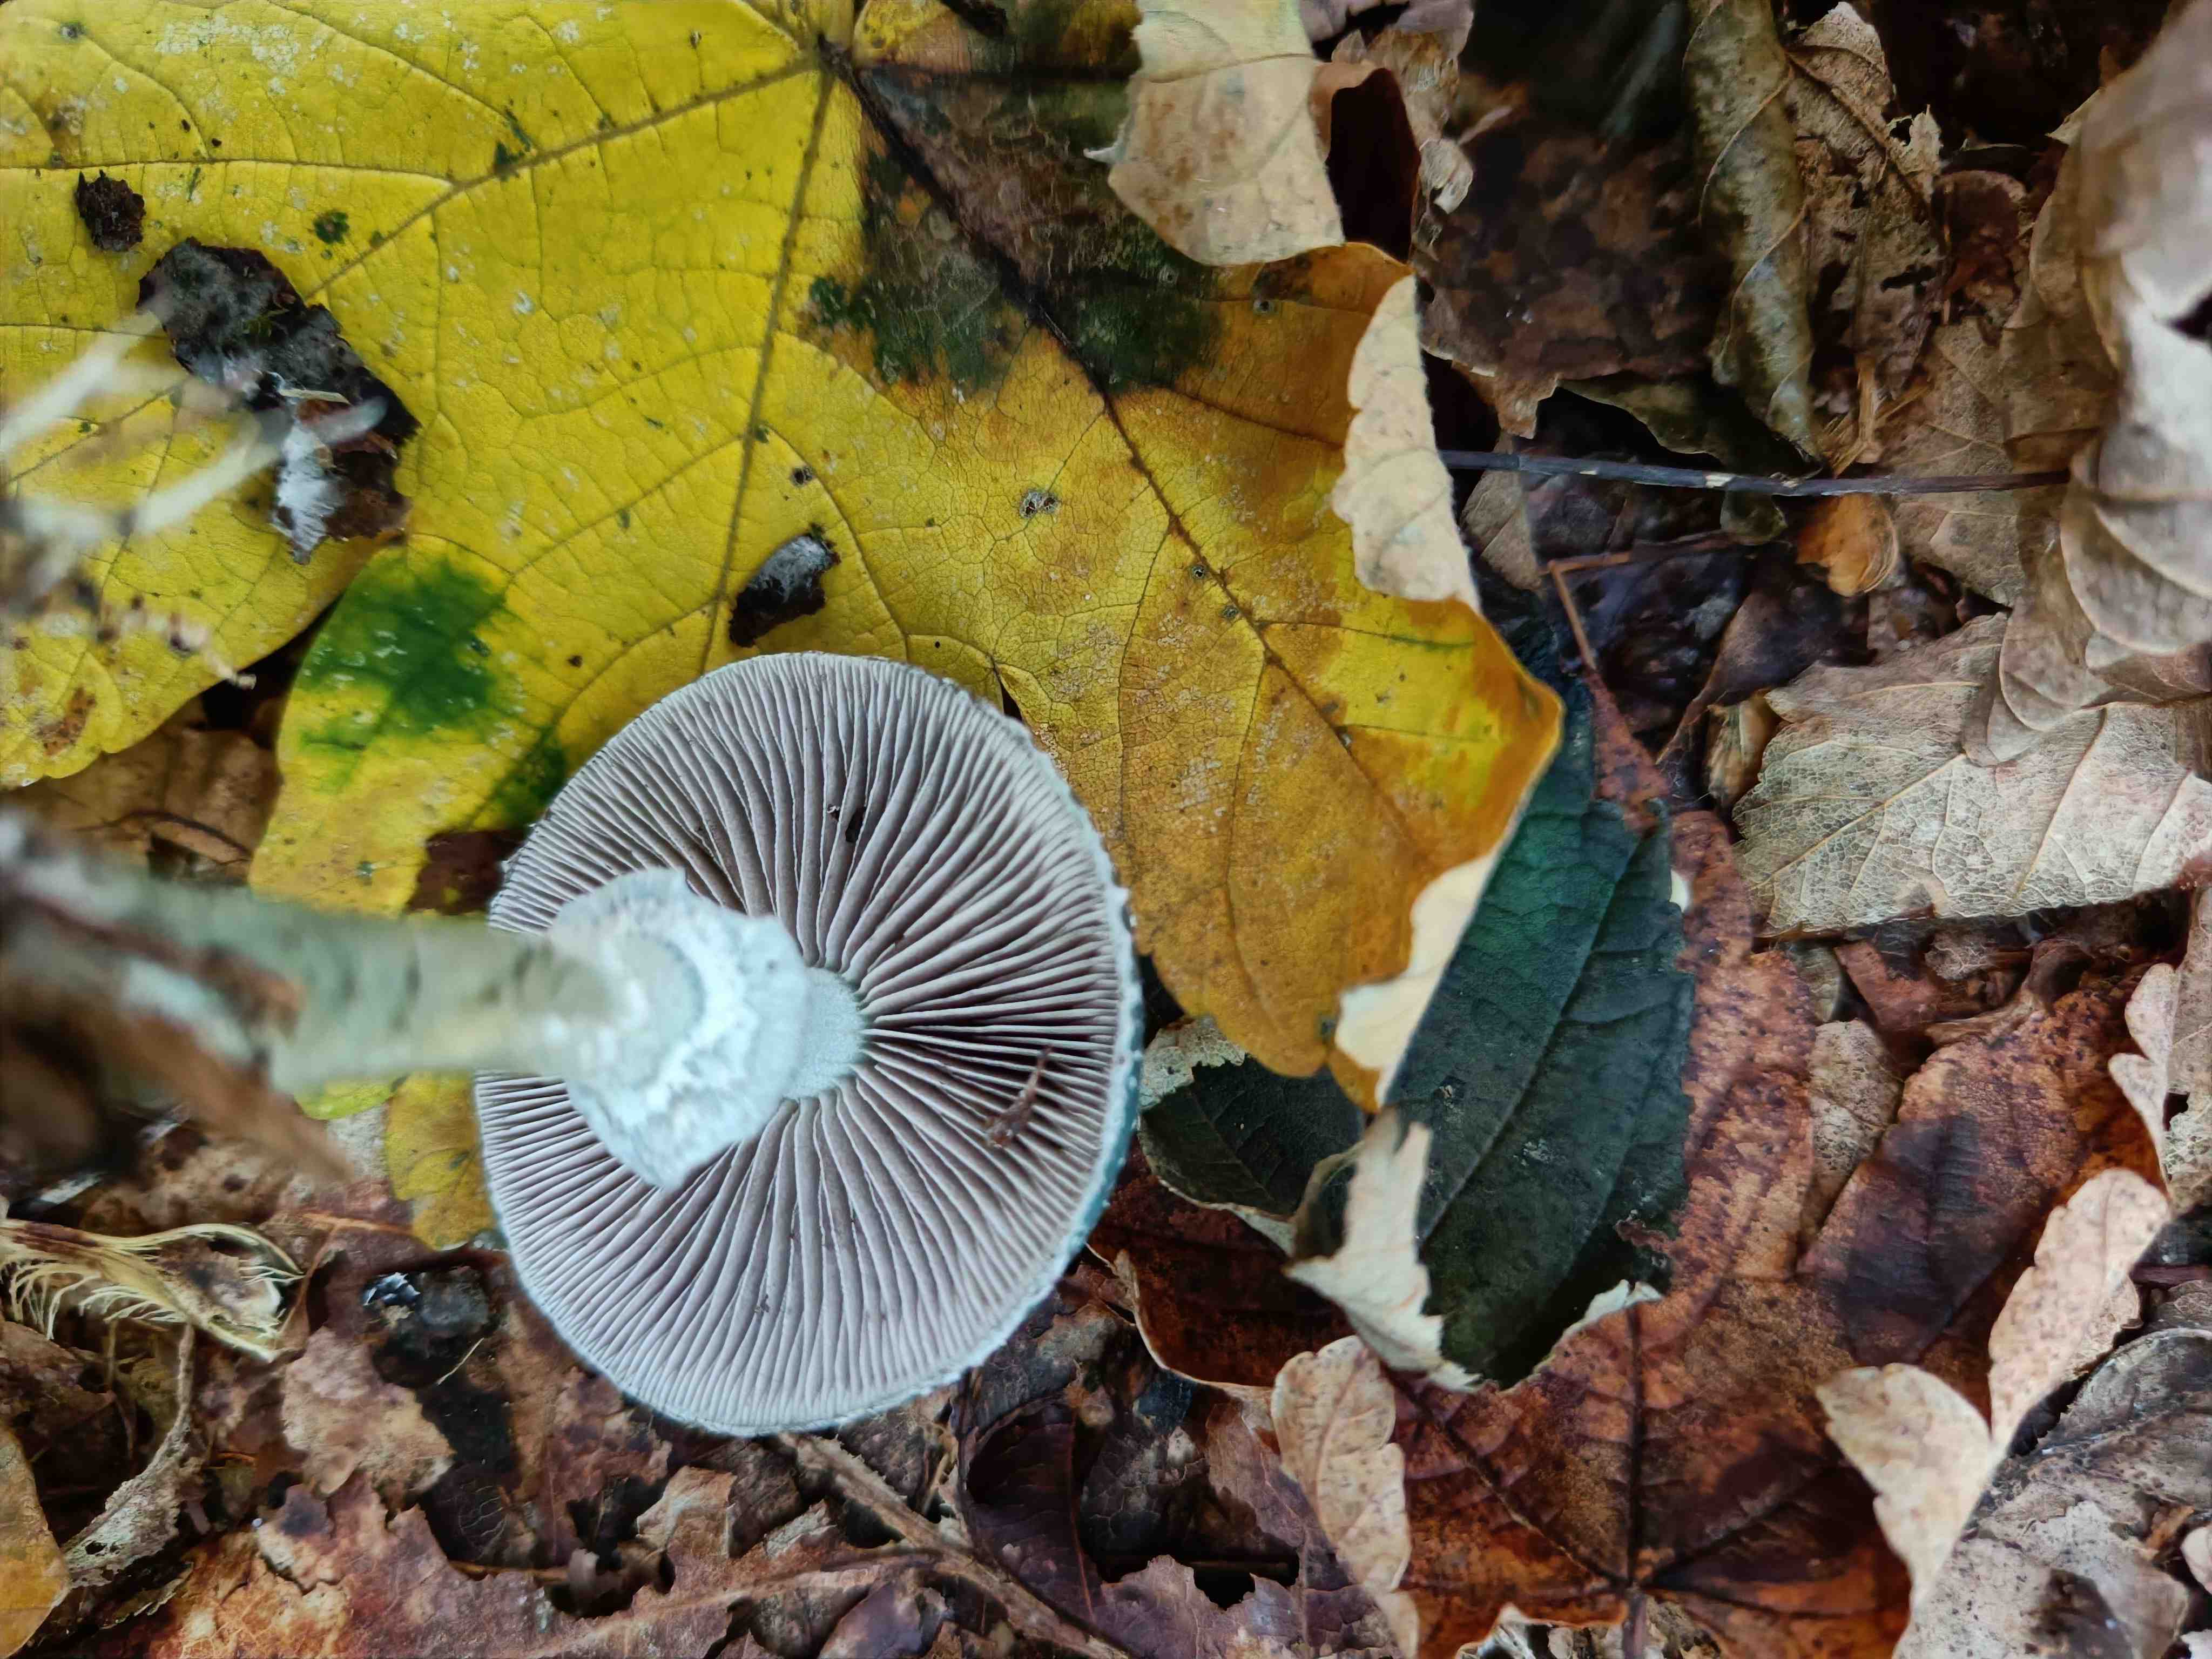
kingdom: Fungi
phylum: Basidiomycota
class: Agaricomycetes
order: Agaricales
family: Strophariaceae
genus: Stropharia
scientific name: Stropharia aeruginosa
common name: spanskgrøn bredblad
